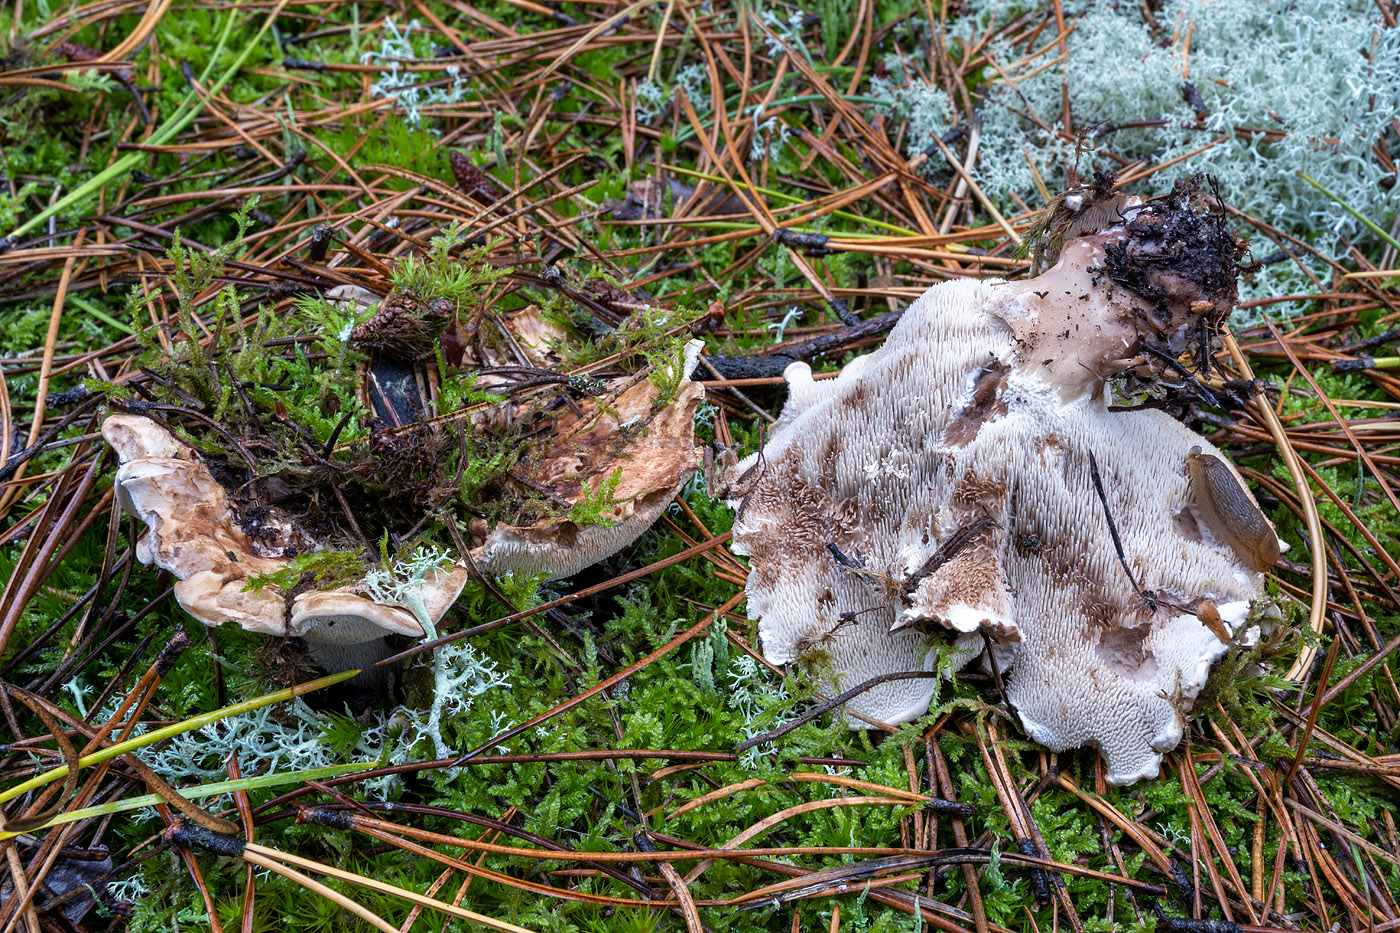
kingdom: Fungi
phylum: Basidiomycota
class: Agaricomycetes
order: Thelephorales
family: Thelephoraceae
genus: Phellodon
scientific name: Phellodon fuligineoalbus
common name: pjusket duftpigsvamp
